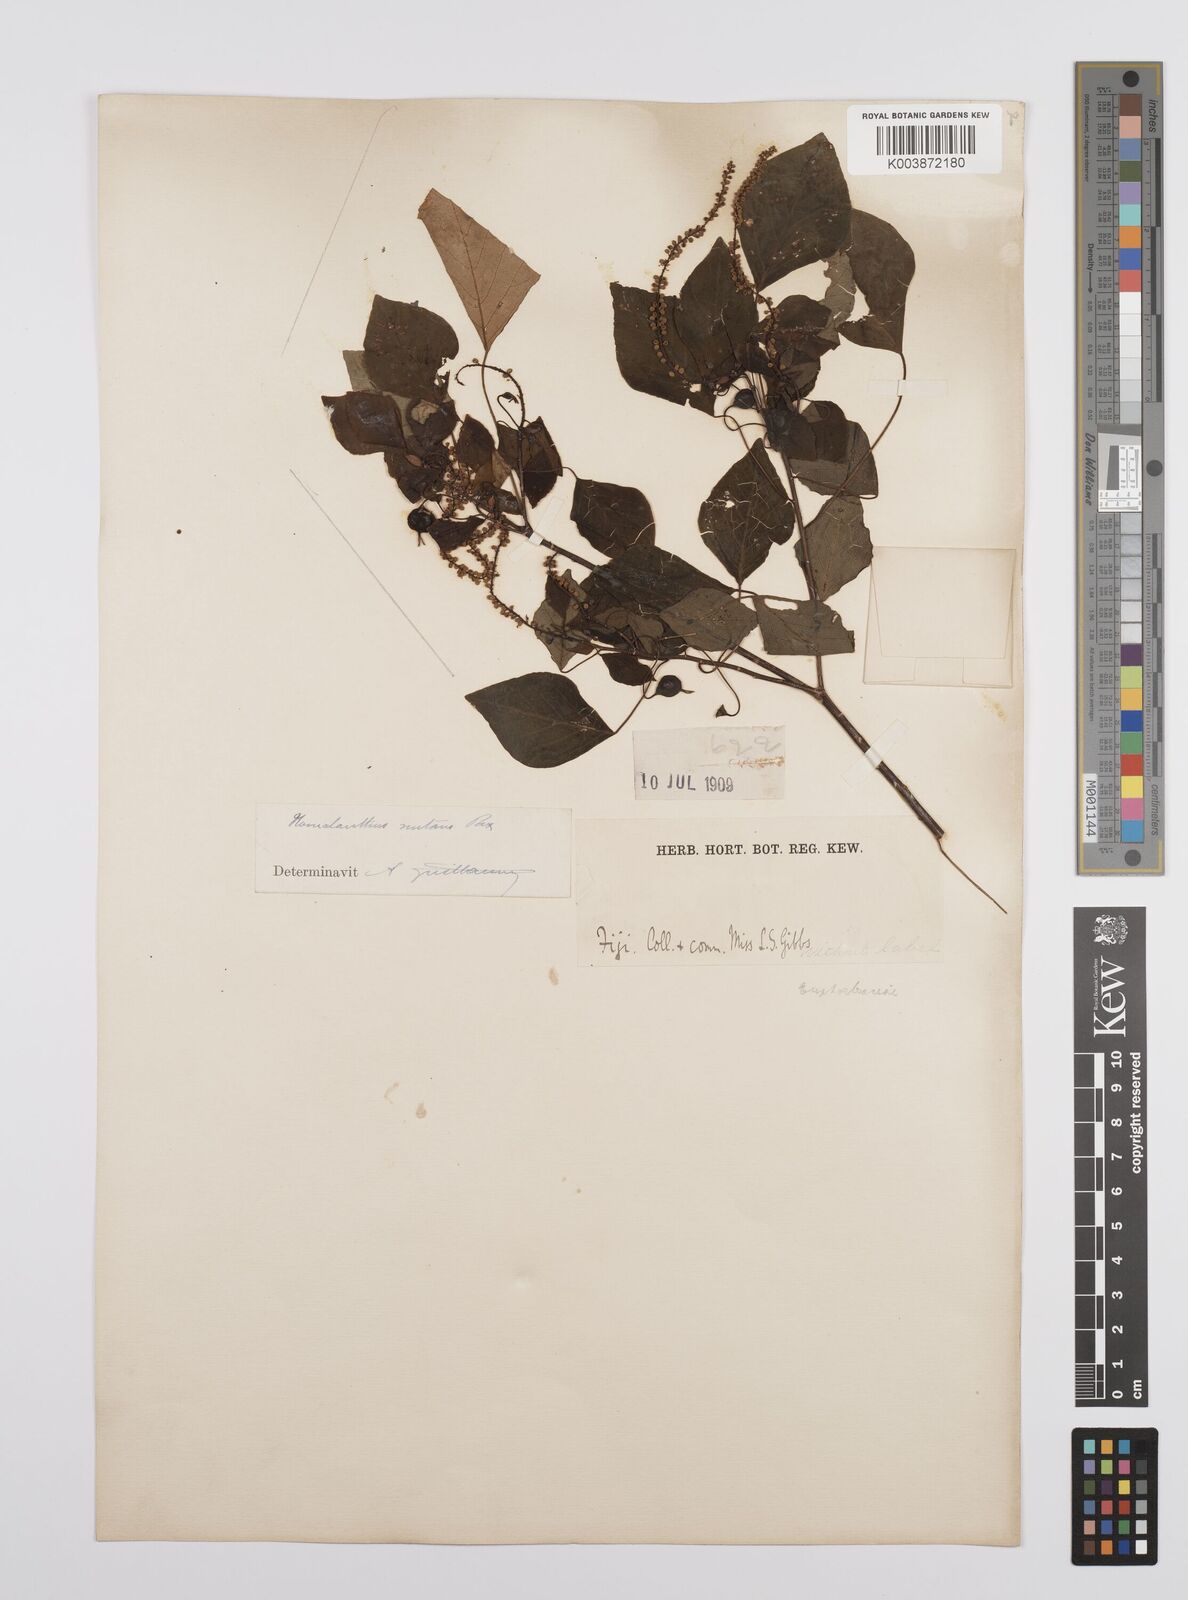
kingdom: Plantae
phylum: Tracheophyta
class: Magnoliopsida
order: Malpighiales
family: Euphorbiaceae
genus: Homalanthus
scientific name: Homalanthus nutans
